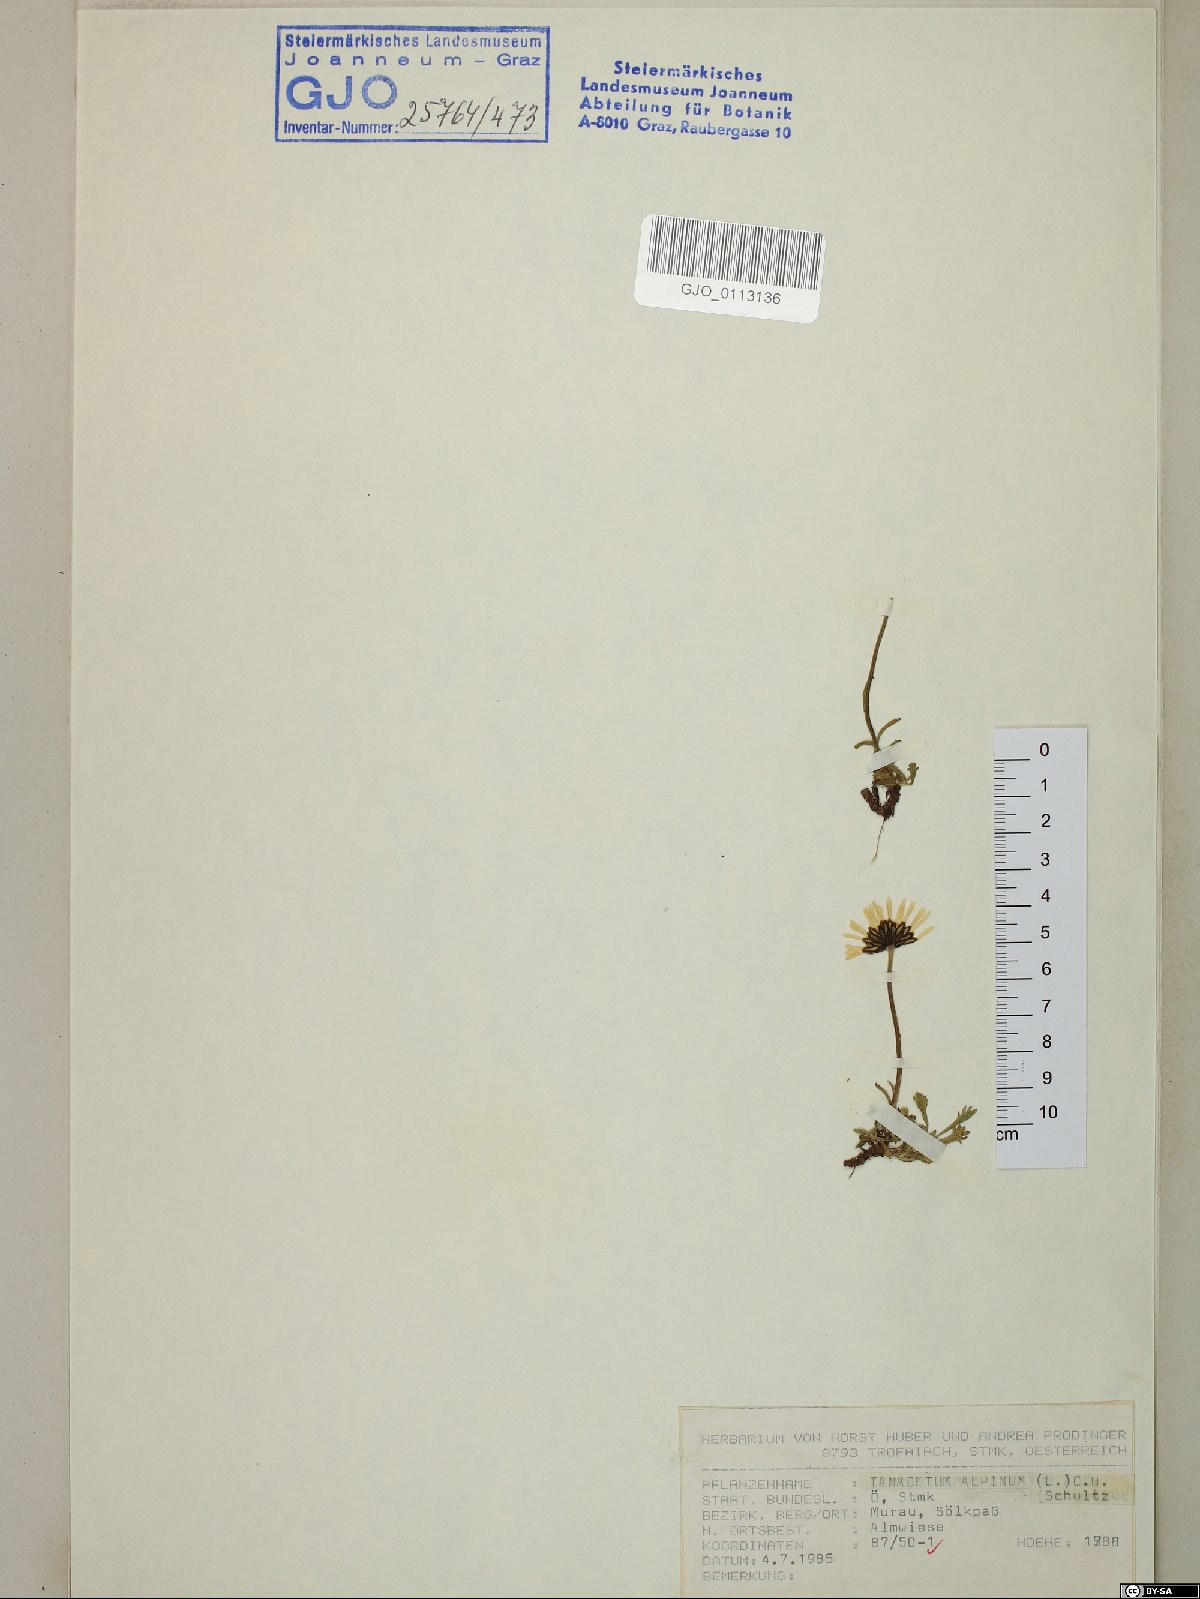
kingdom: Plantae
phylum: Tracheophyta
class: Magnoliopsida
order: Asterales
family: Asteraceae
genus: Leucanthemopsis
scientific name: Leucanthemopsis alpina
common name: Alpine moon daisy
